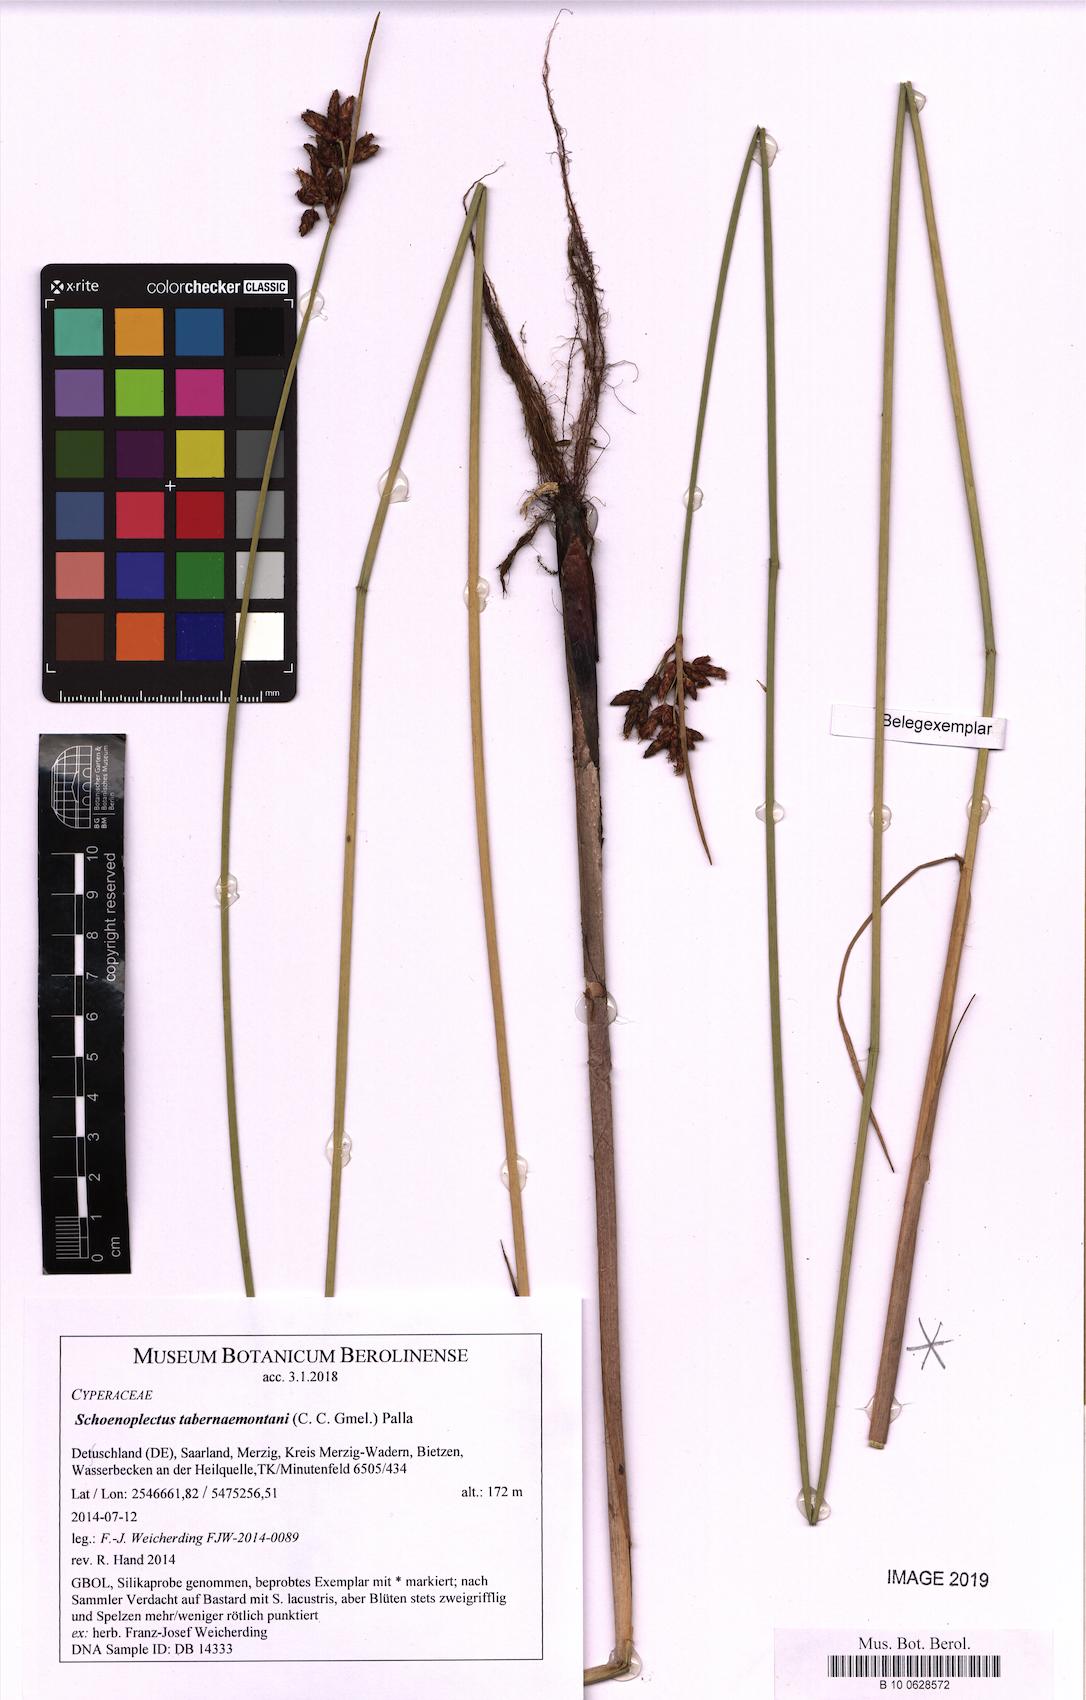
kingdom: Plantae
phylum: Tracheophyta
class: Liliopsida
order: Poales
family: Cyperaceae
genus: Schoenoplectus
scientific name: Schoenoplectus tabernaemontani
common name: Grey club-rush
